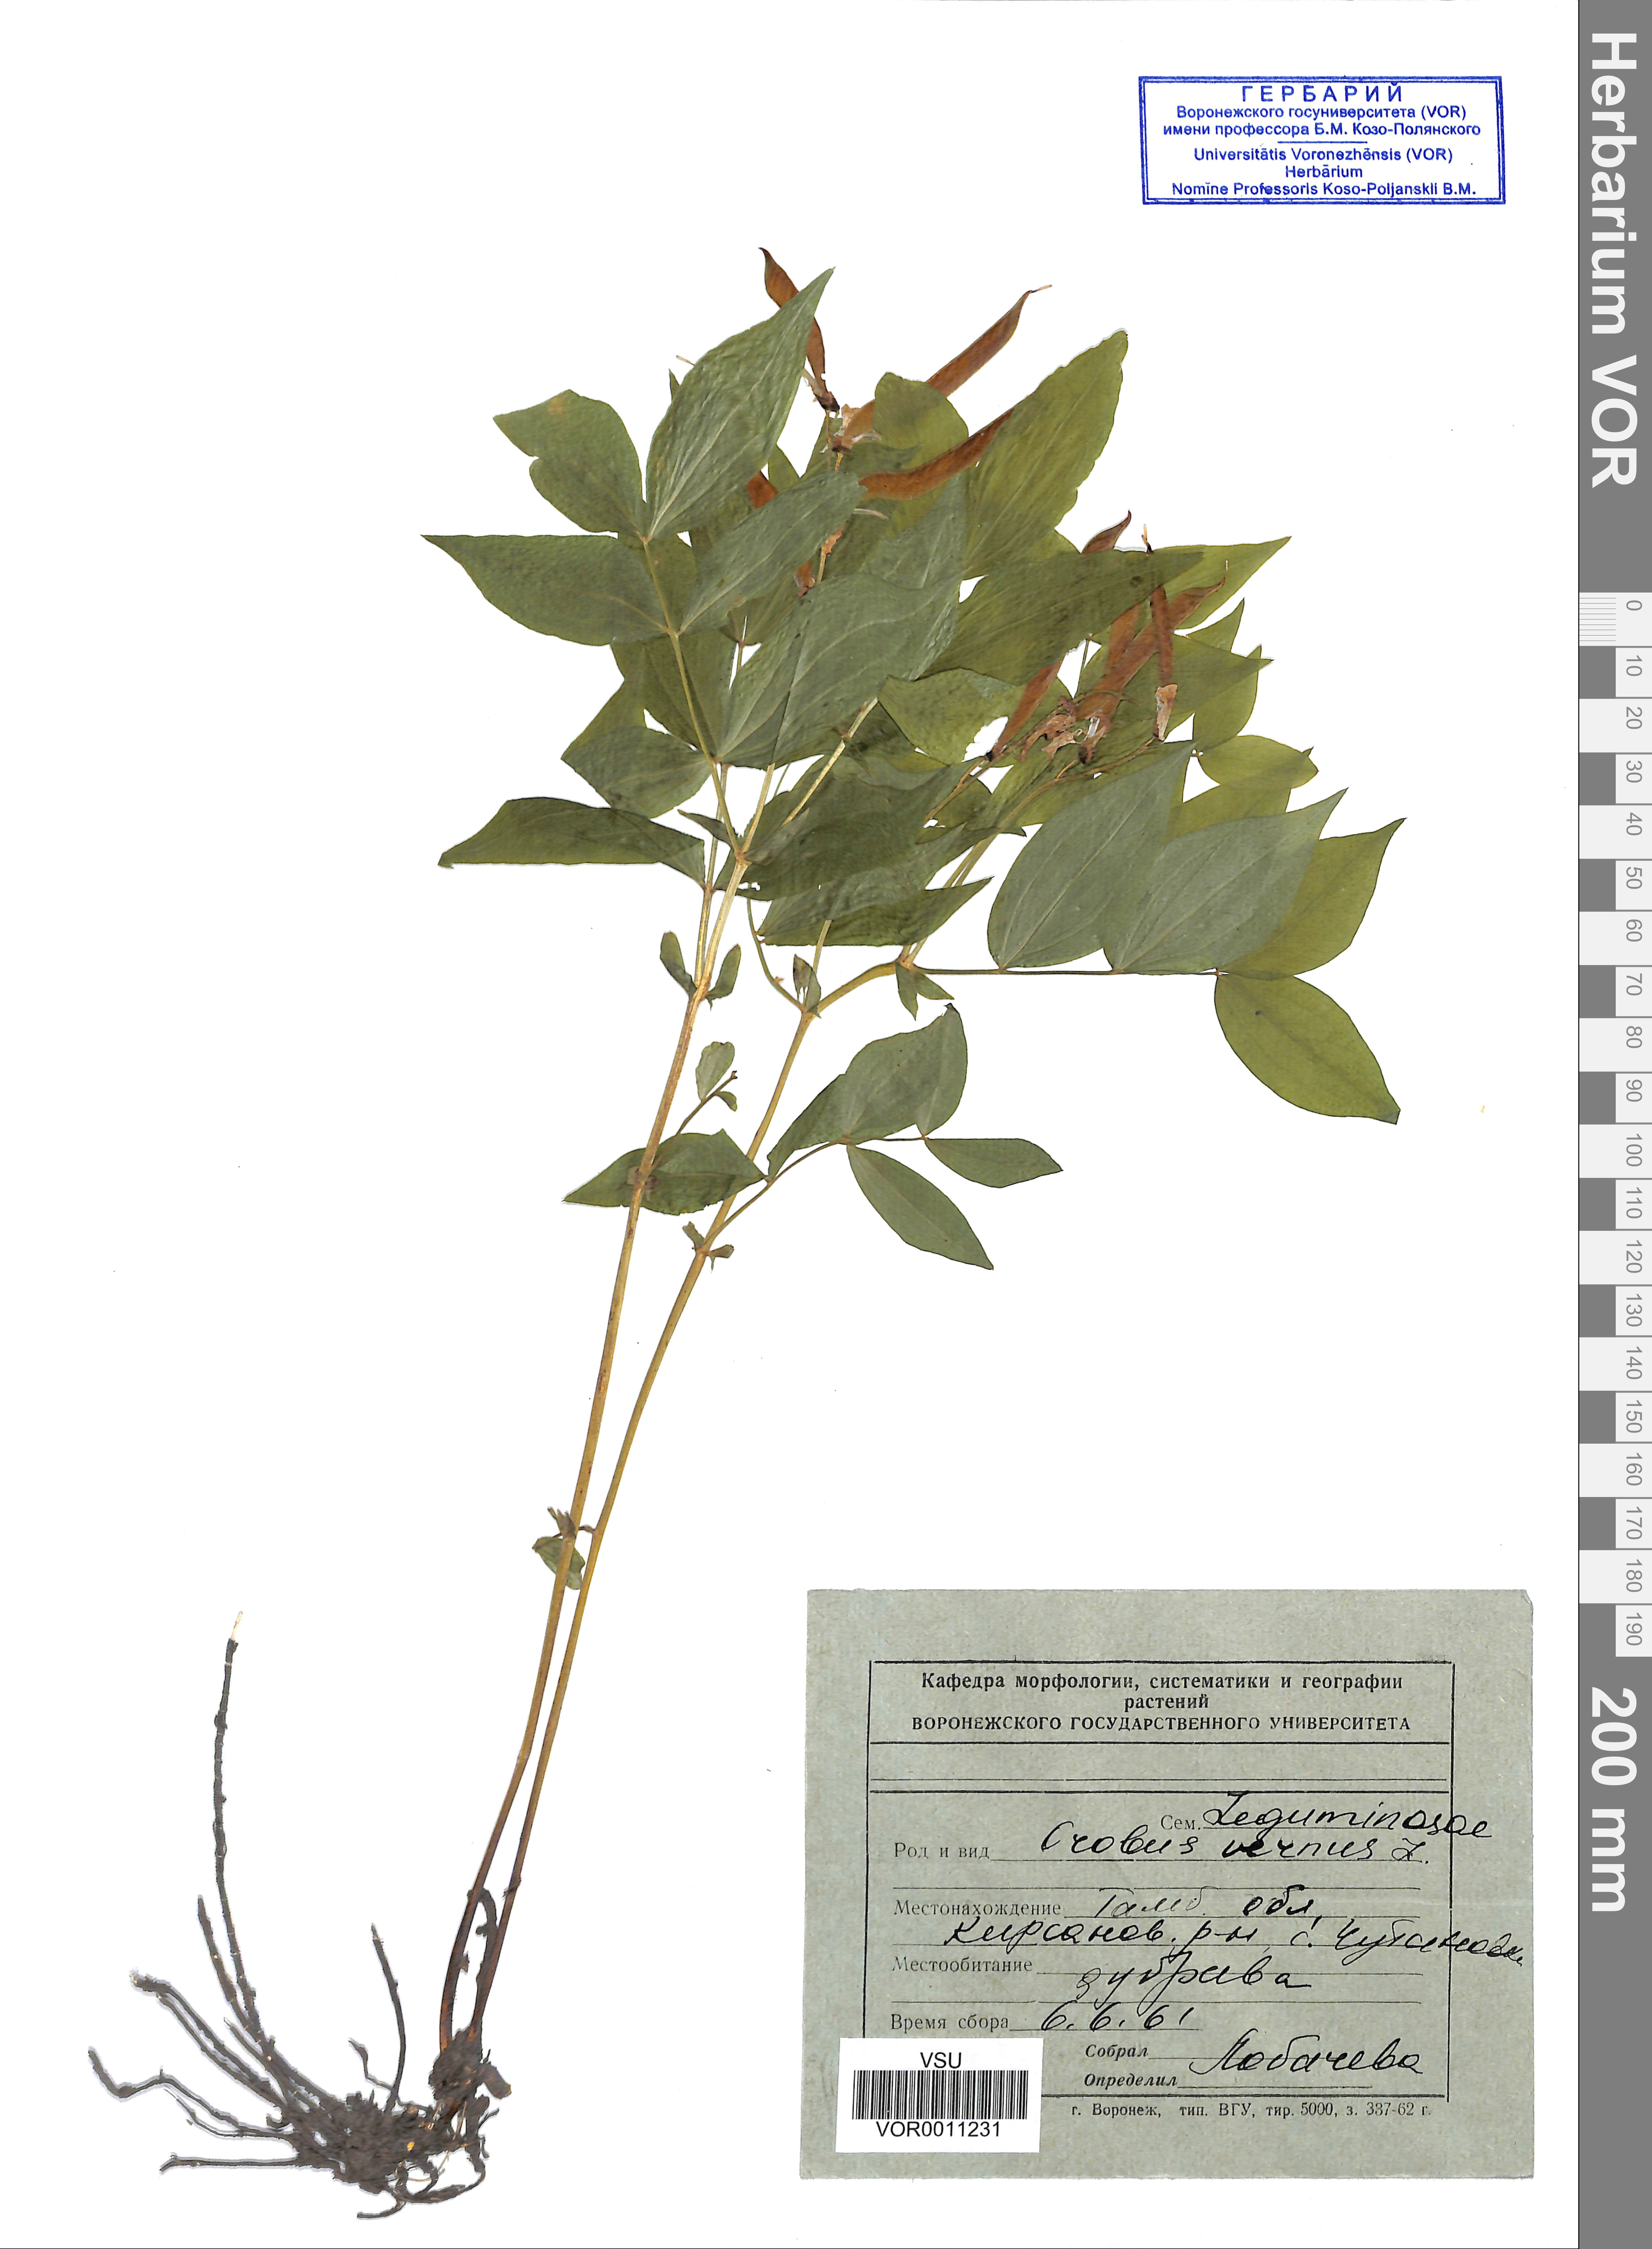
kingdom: Plantae
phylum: Tracheophyta
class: Magnoliopsida
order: Fabales
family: Fabaceae
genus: Lathyrus
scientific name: Lathyrus vernus
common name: Spring pea
